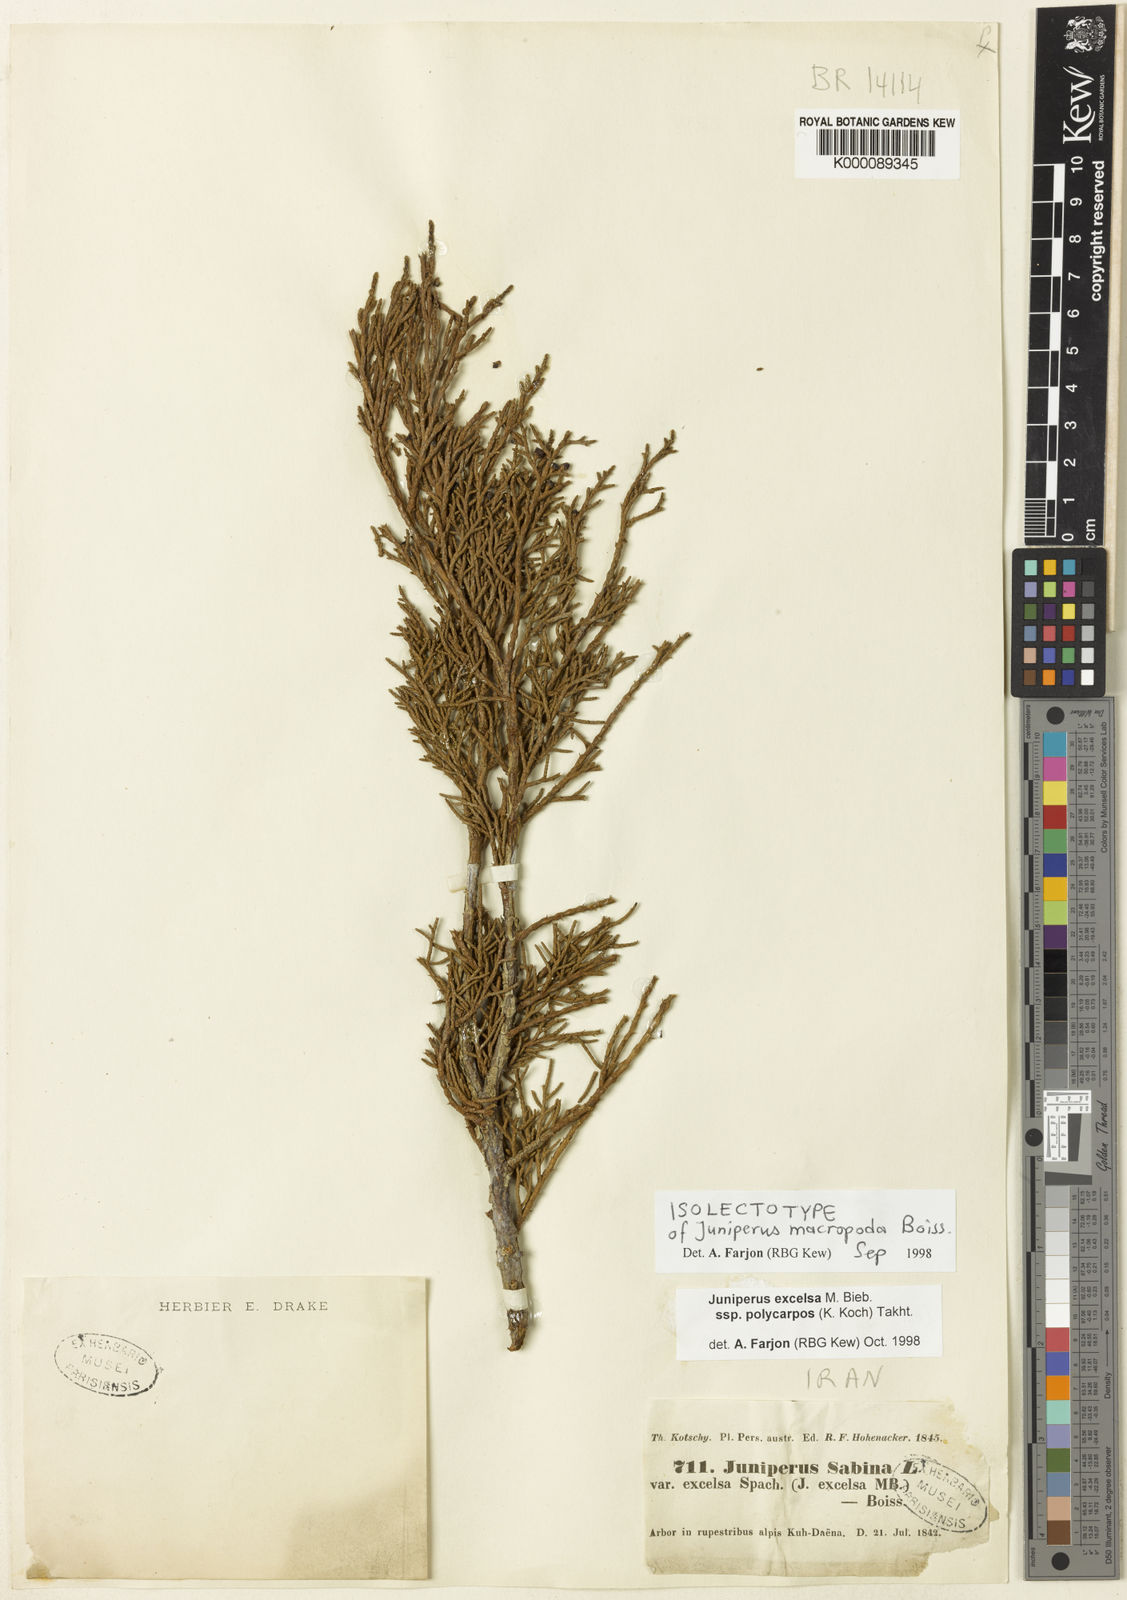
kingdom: Plantae
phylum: Tracheophyta
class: Pinopsida
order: Pinales
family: Cupressaceae
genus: Juniperus
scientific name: Juniperus excelsa
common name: Crimean juniper
